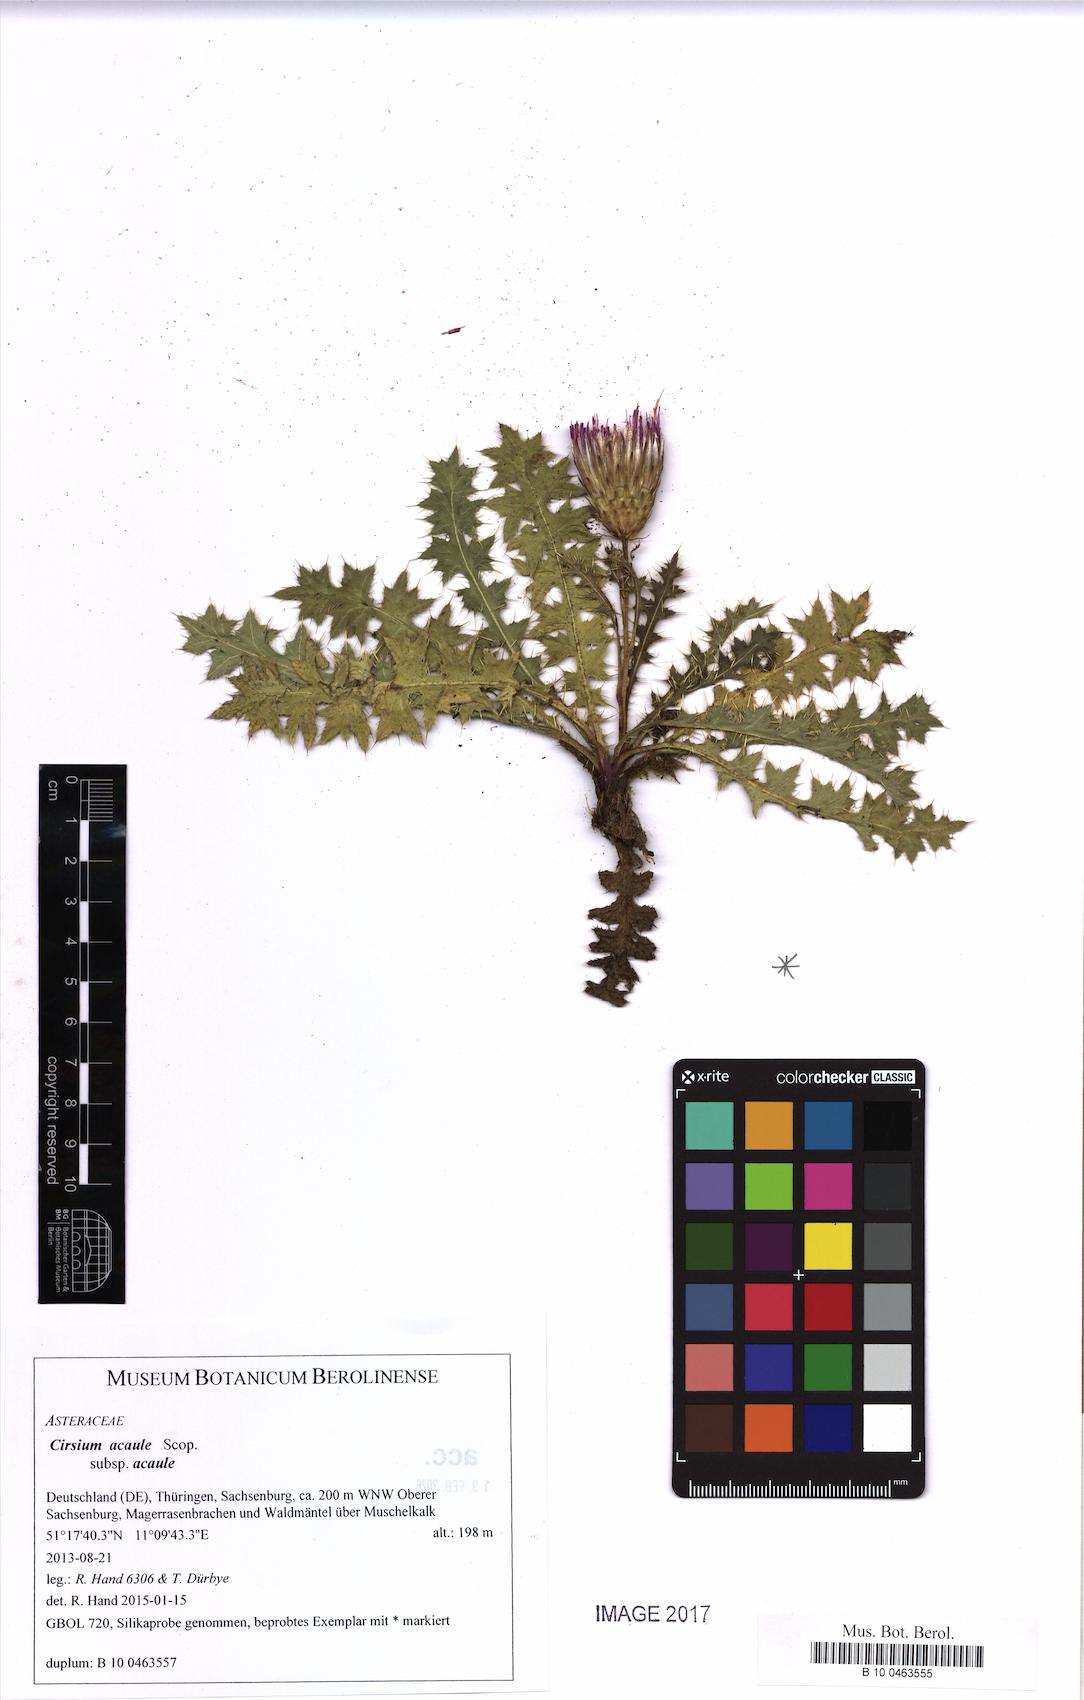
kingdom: Plantae
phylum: Tracheophyta
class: Magnoliopsida
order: Asterales
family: Asteraceae
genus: Cirsium
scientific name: Cirsium acaule
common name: Dwarf thistle
